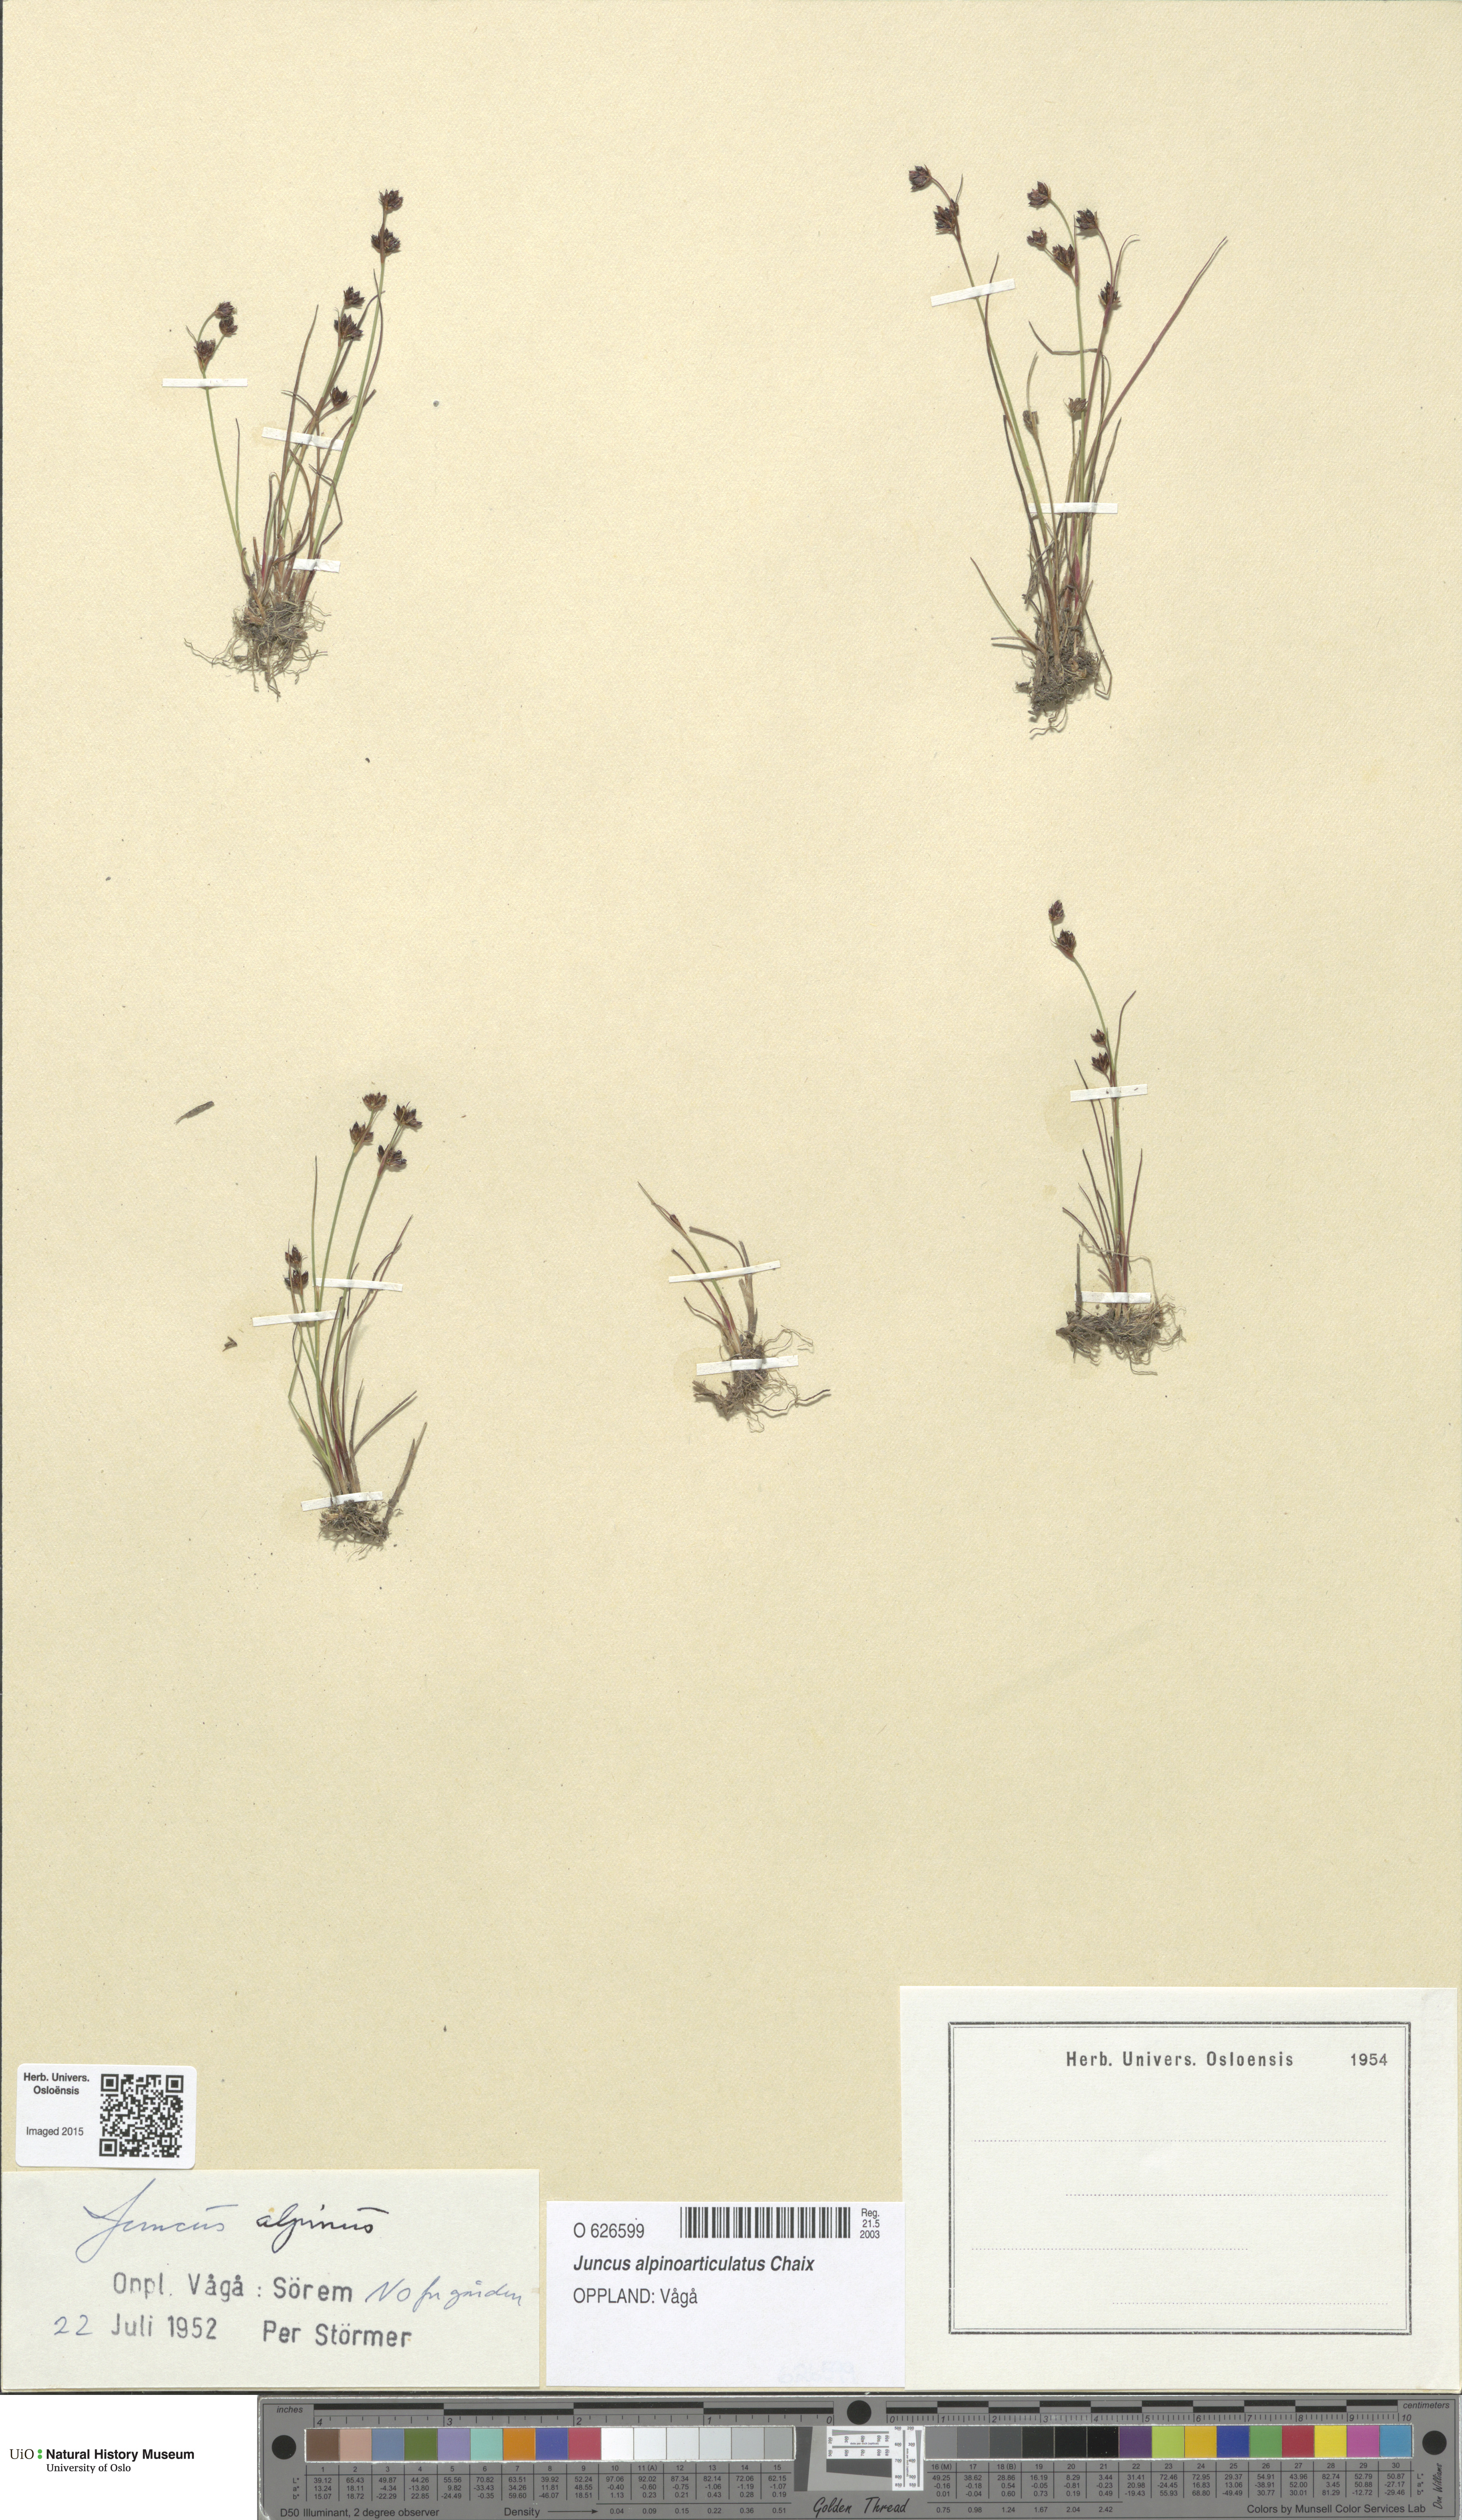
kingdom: Plantae
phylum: Tracheophyta
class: Liliopsida
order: Poales
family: Juncaceae
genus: Juncus
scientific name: Juncus alpinoarticulatus
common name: Alpine rush
